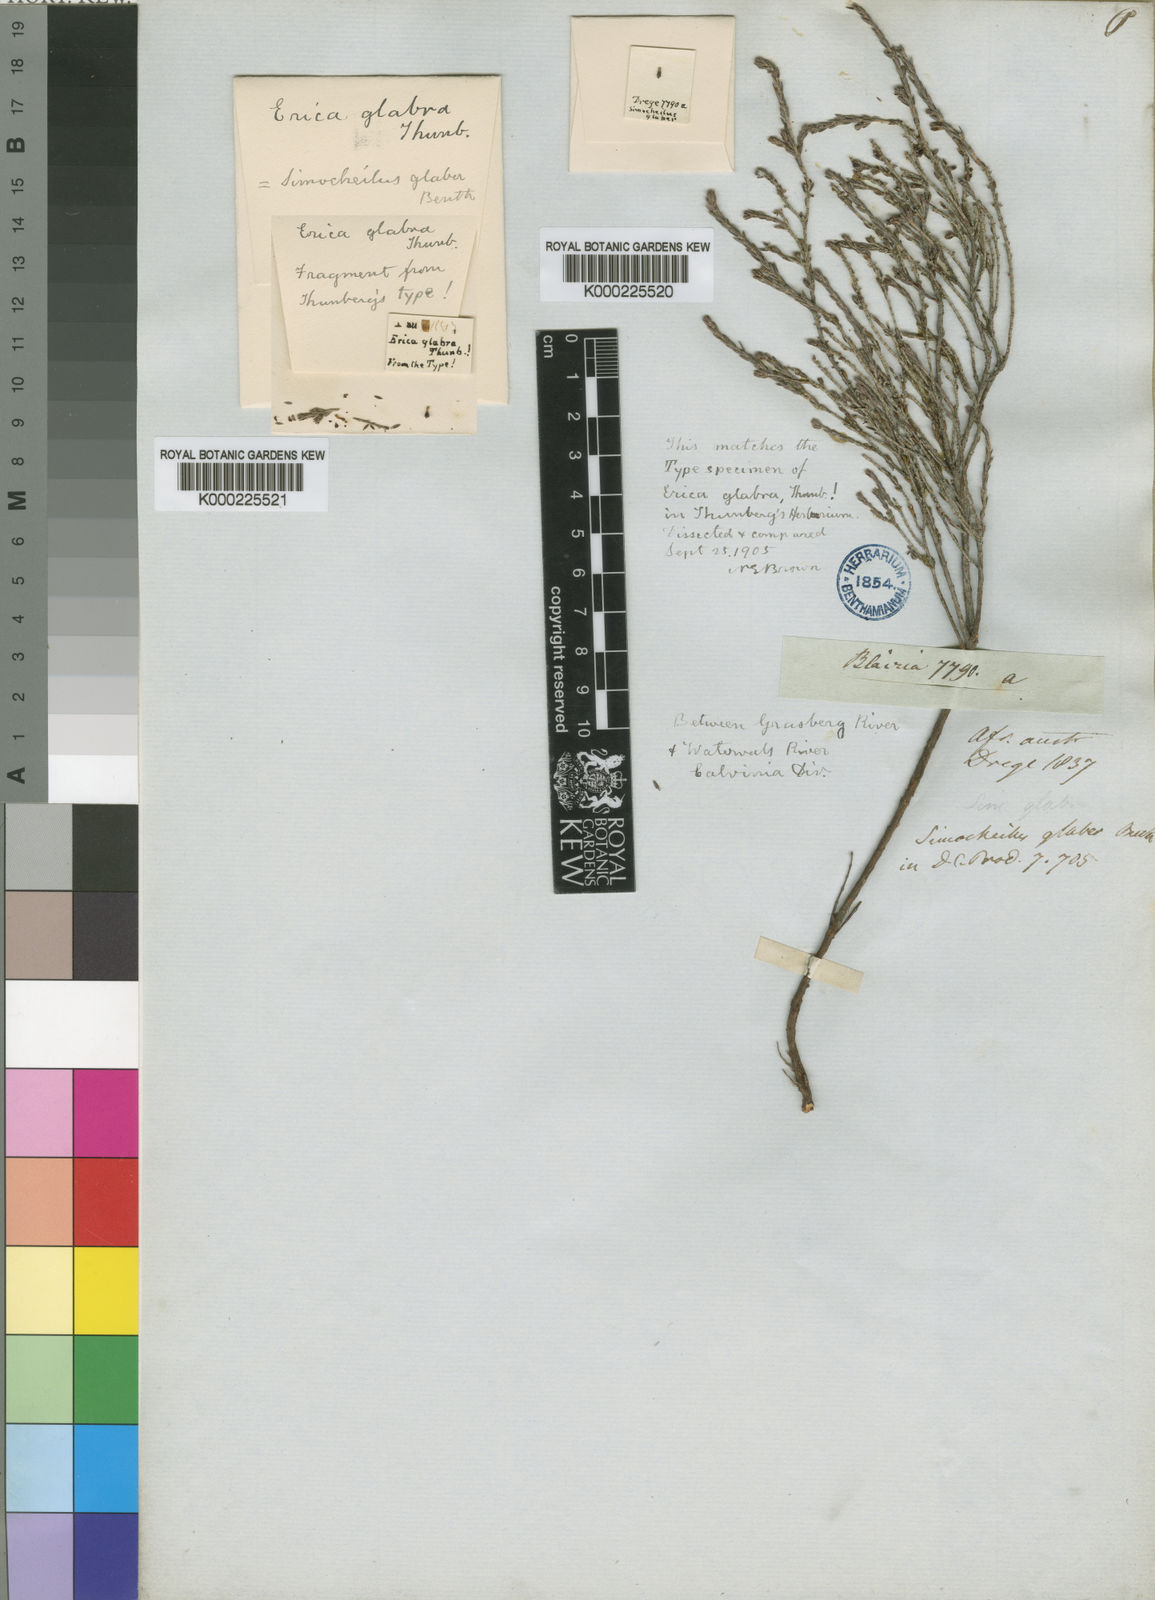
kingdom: Plantae
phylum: Tracheophyta
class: Magnoliopsida
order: Ericales
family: Ericaceae
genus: Erica
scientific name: Erica glabra
